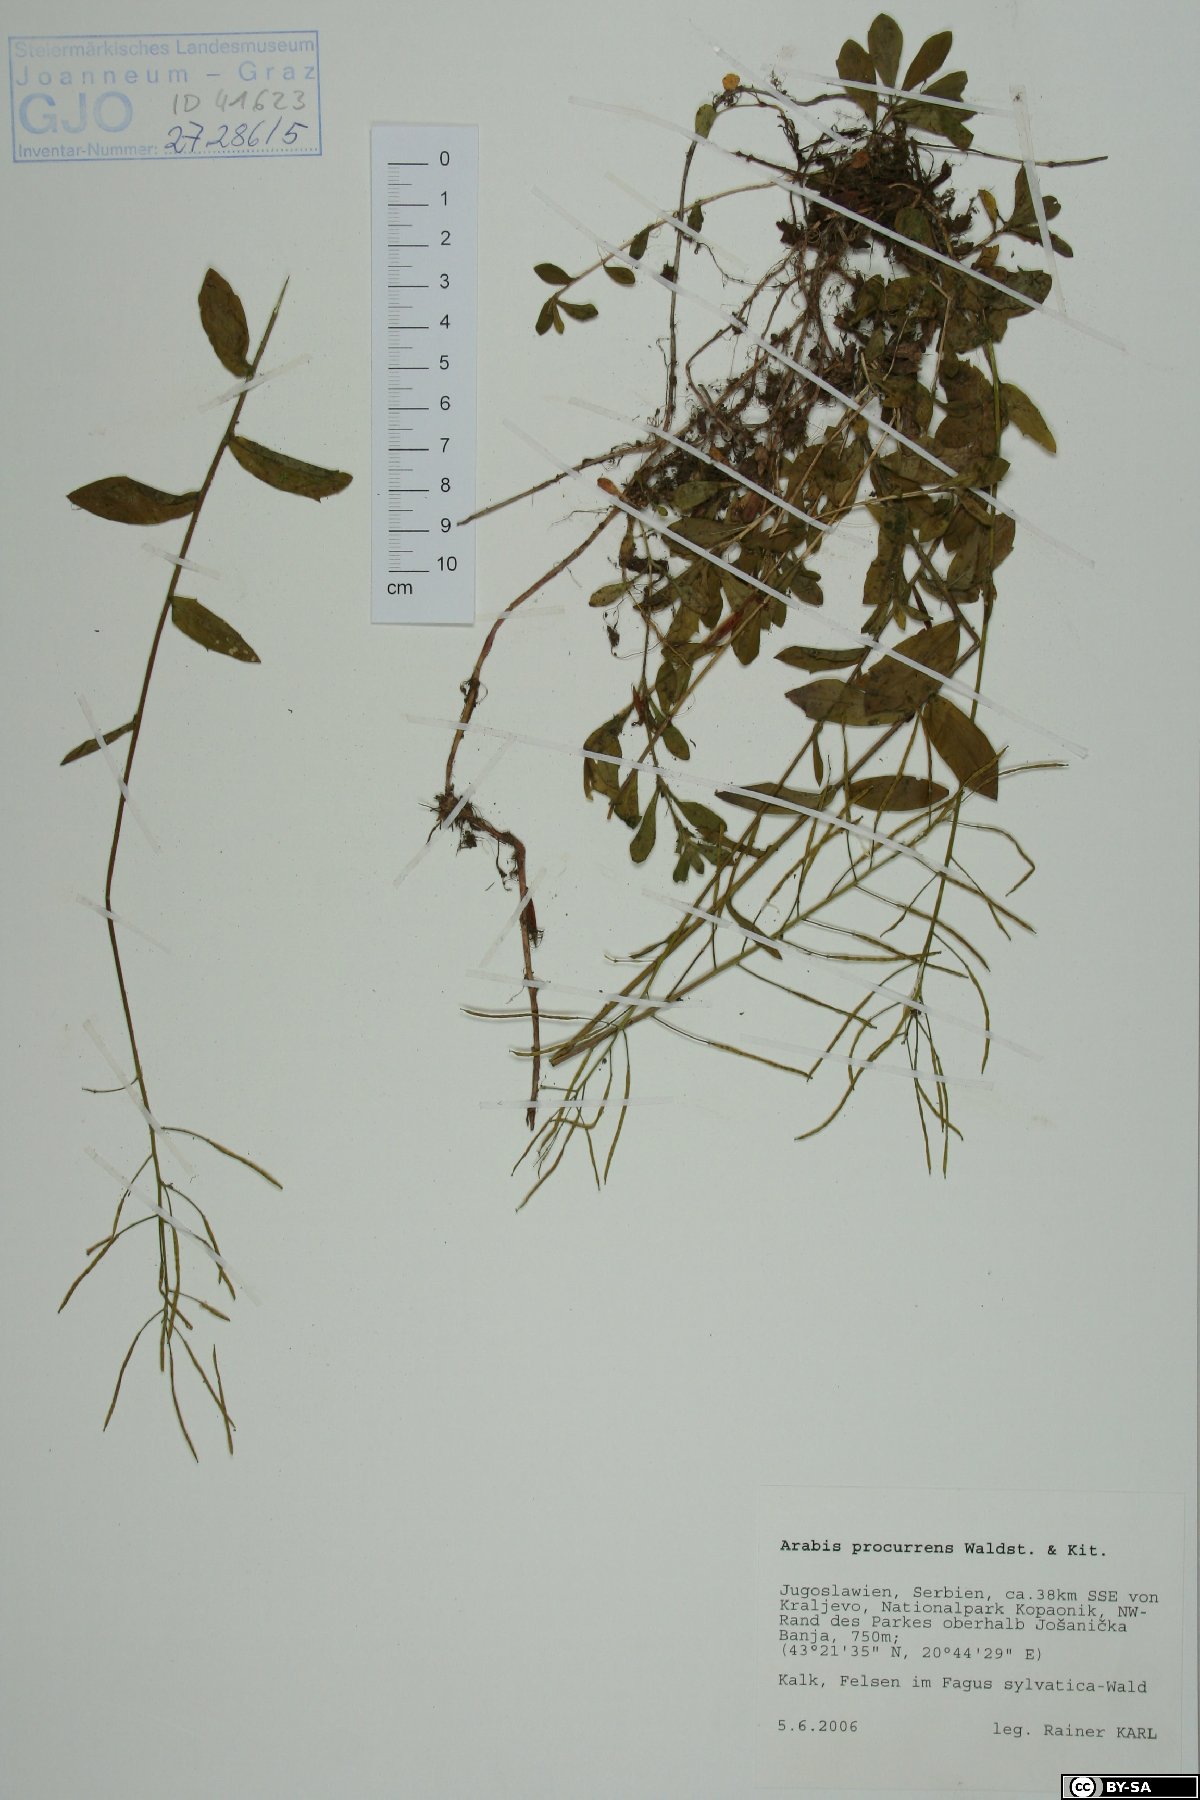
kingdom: Plantae
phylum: Tracheophyta
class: Magnoliopsida
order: Brassicales
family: Brassicaceae
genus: Arabis
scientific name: Arabis procurrens
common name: Running rockcress
